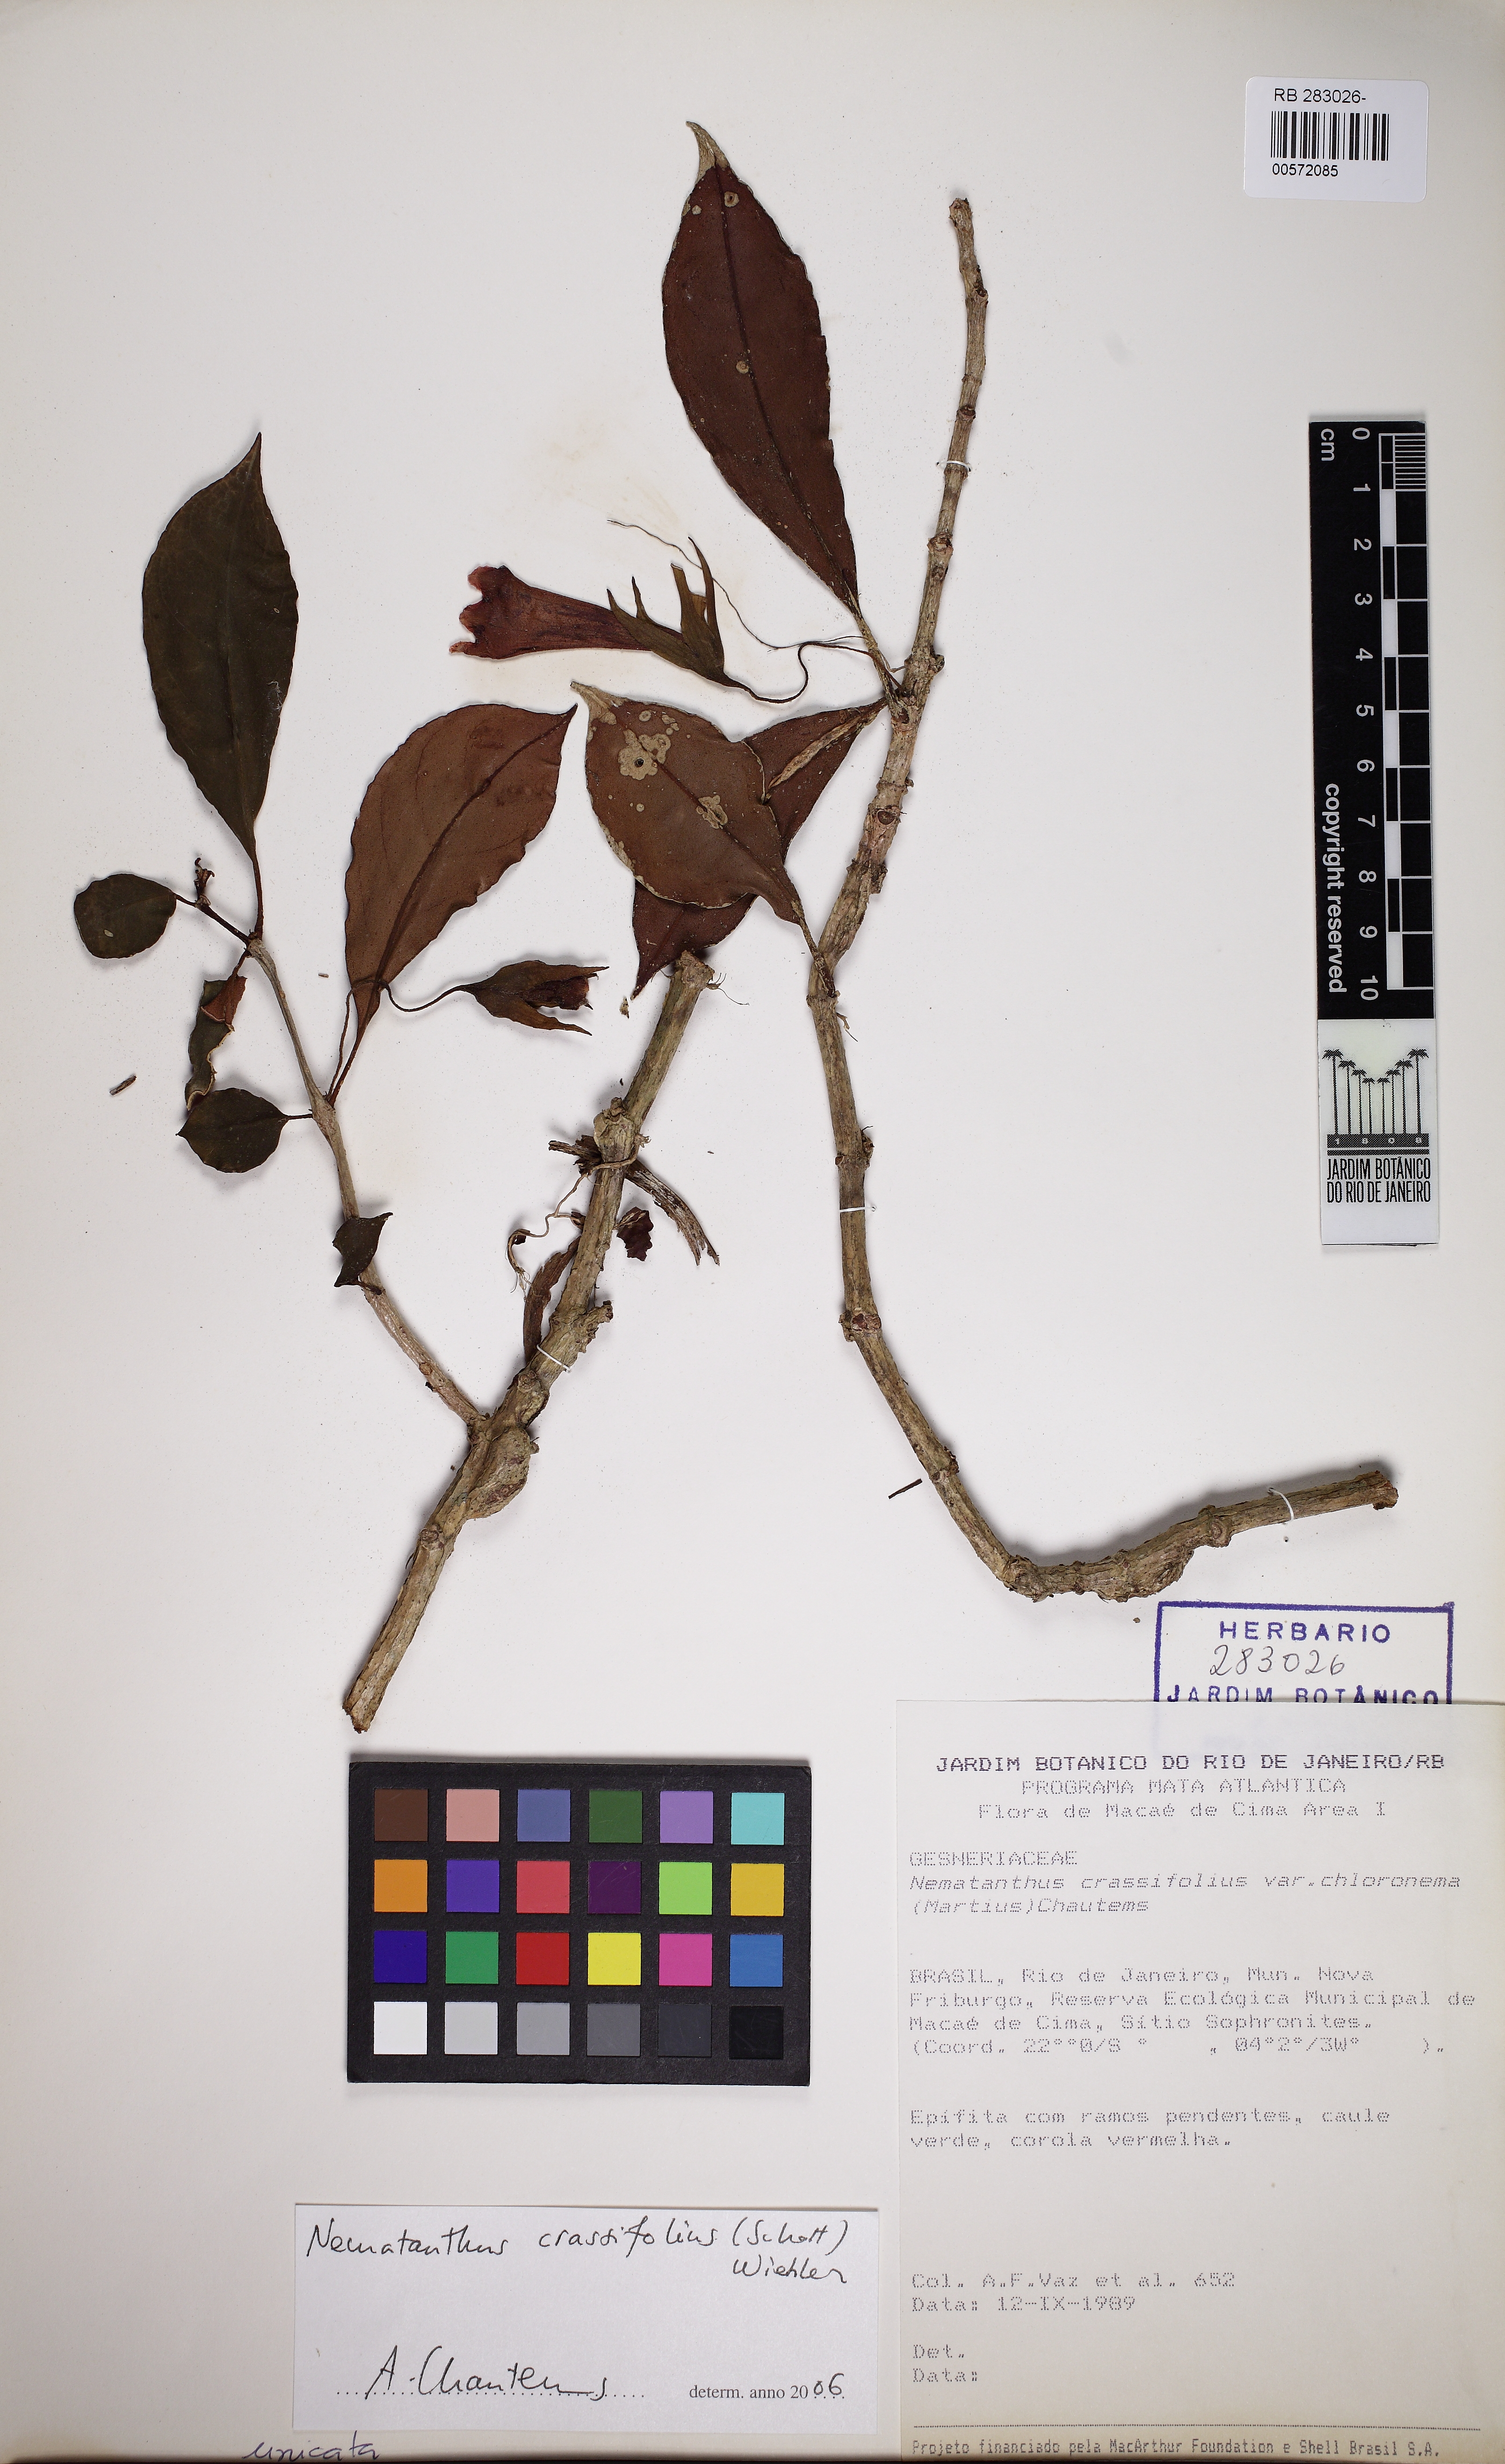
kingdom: Plantae
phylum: Tracheophyta
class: Magnoliopsida
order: Lamiales
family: Gesneriaceae
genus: Nematanthus
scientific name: Nematanthus crassifolius
